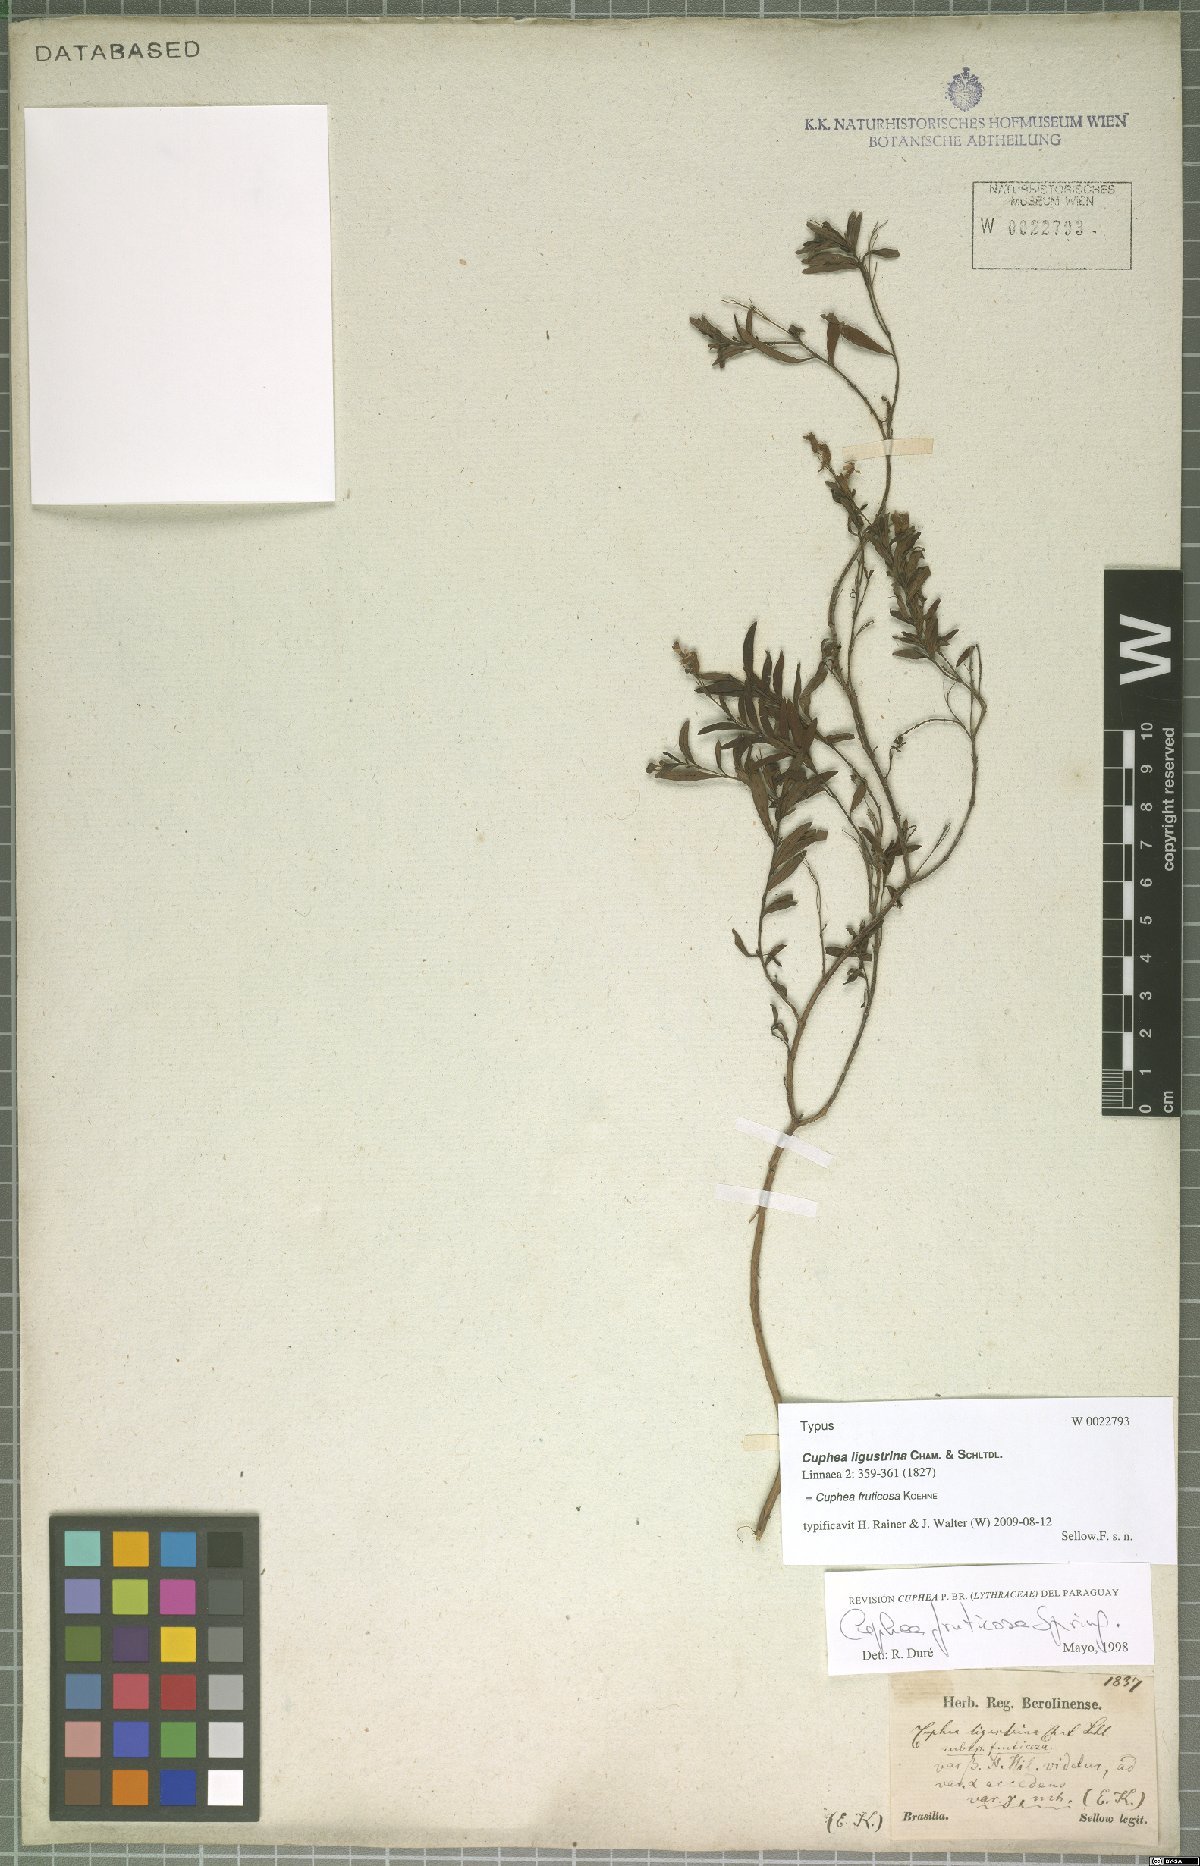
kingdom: Plantae
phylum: Tracheophyta
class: Magnoliopsida
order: Myrtales
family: Lythraceae
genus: Cuphea
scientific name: Cuphea fruticosa
